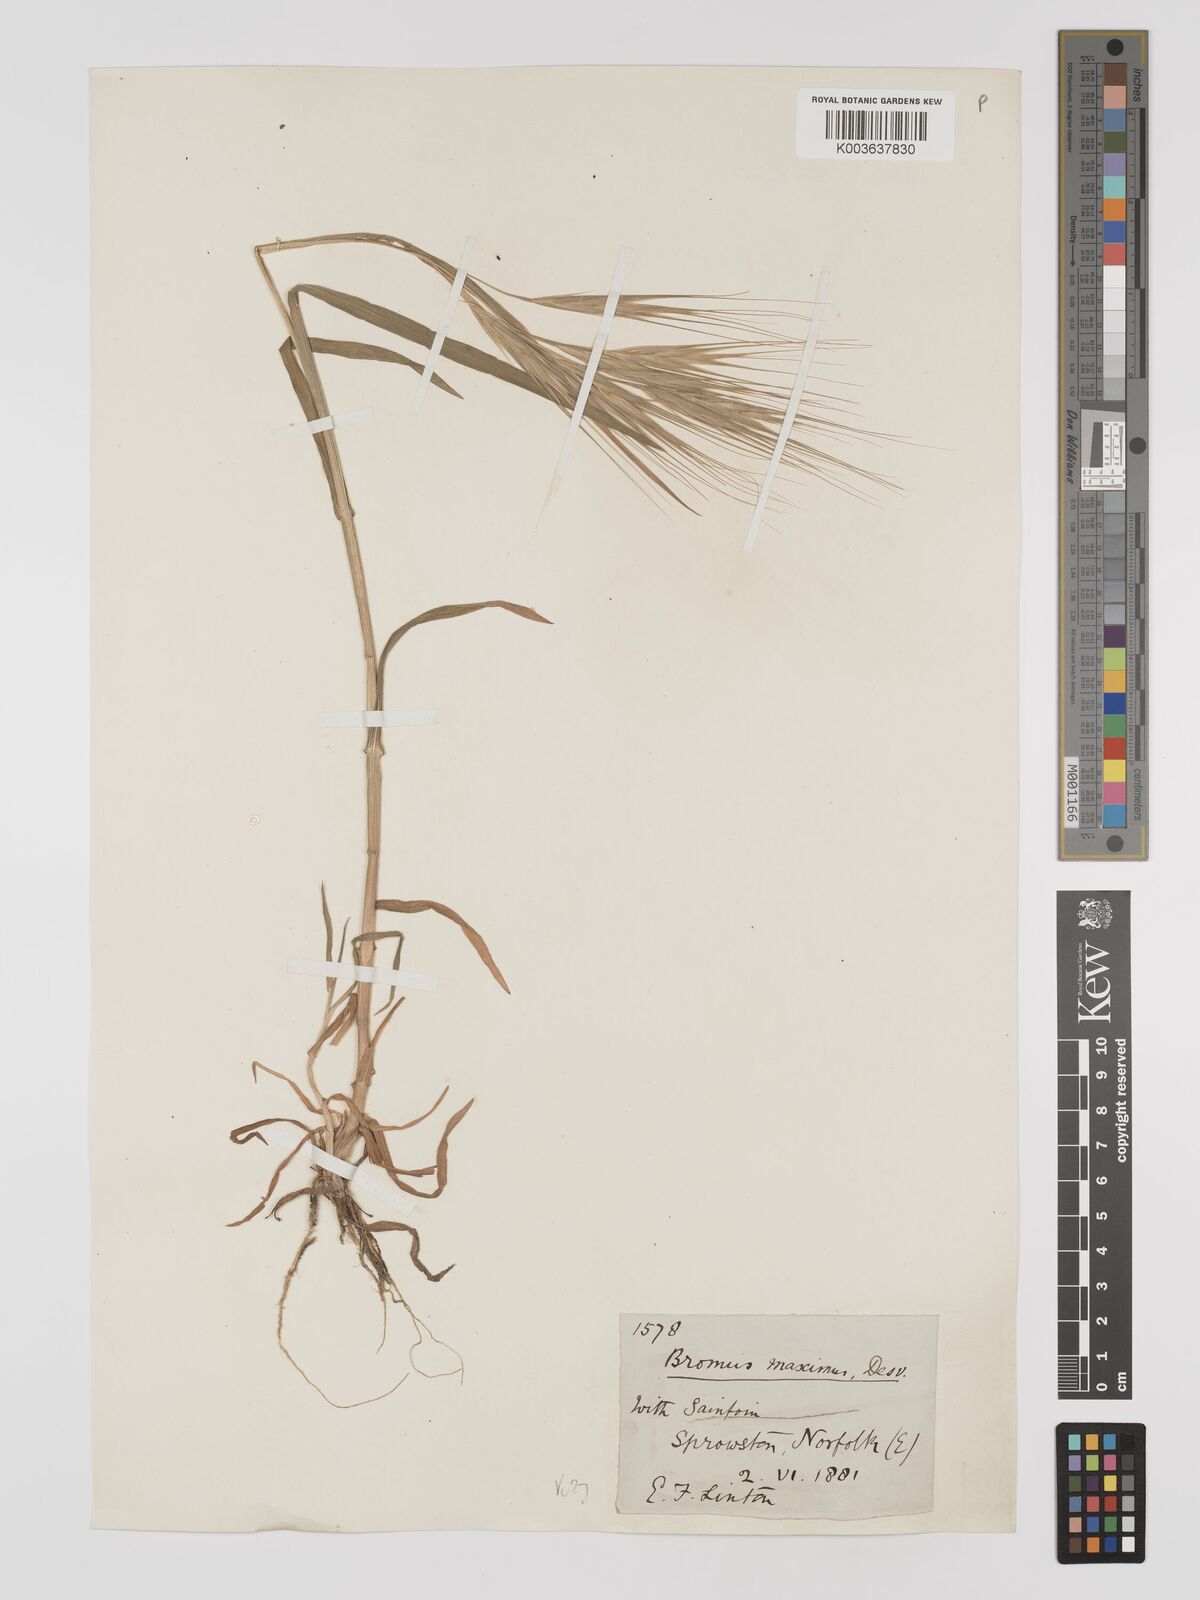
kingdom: Plantae
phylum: Tracheophyta
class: Liliopsida
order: Poales
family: Poaceae
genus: Bromus
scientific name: Bromus
